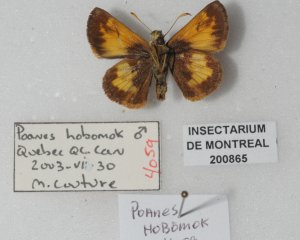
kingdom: Animalia
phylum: Arthropoda
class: Insecta
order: Lepidoptera
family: Hesperiidae
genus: Lon
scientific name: Lon hobomok
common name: Hobomok Skipper
